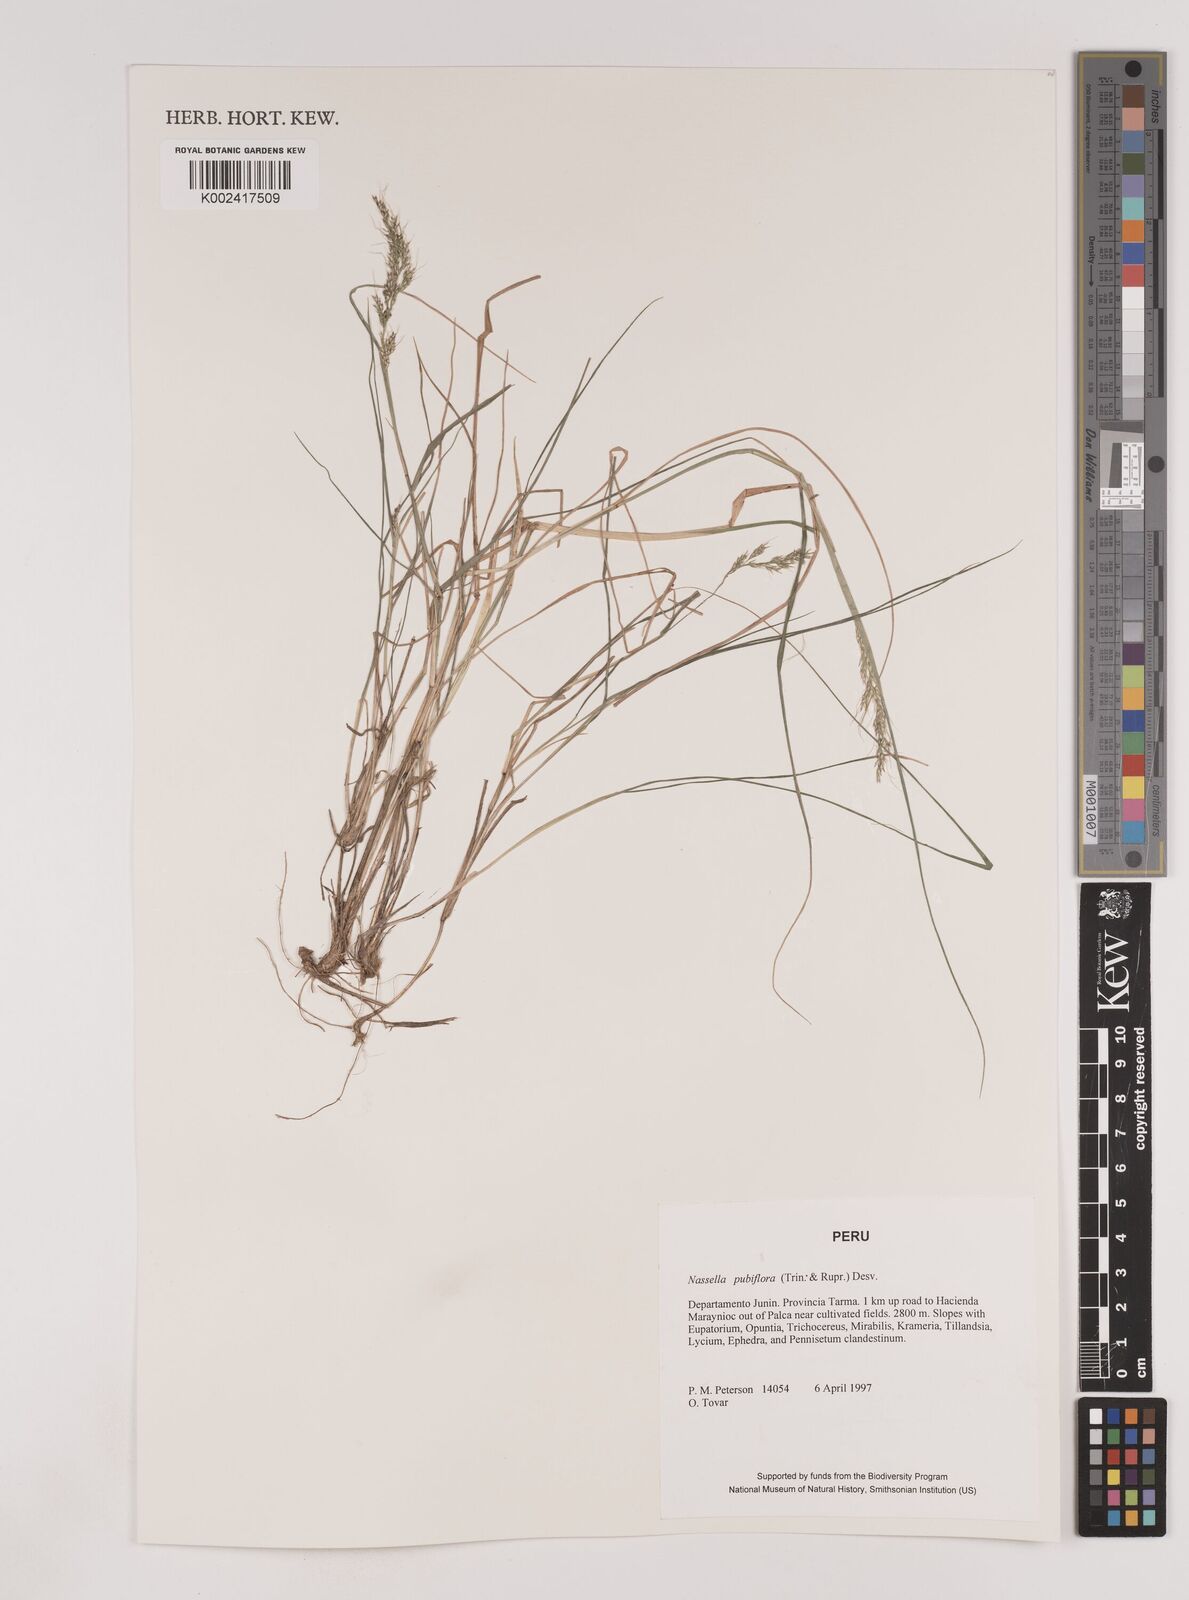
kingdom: Plantae
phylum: Tracheophyta
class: Liliopsida
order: Poales
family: Poaceae
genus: Nassella
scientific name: Nassella pubiflora
